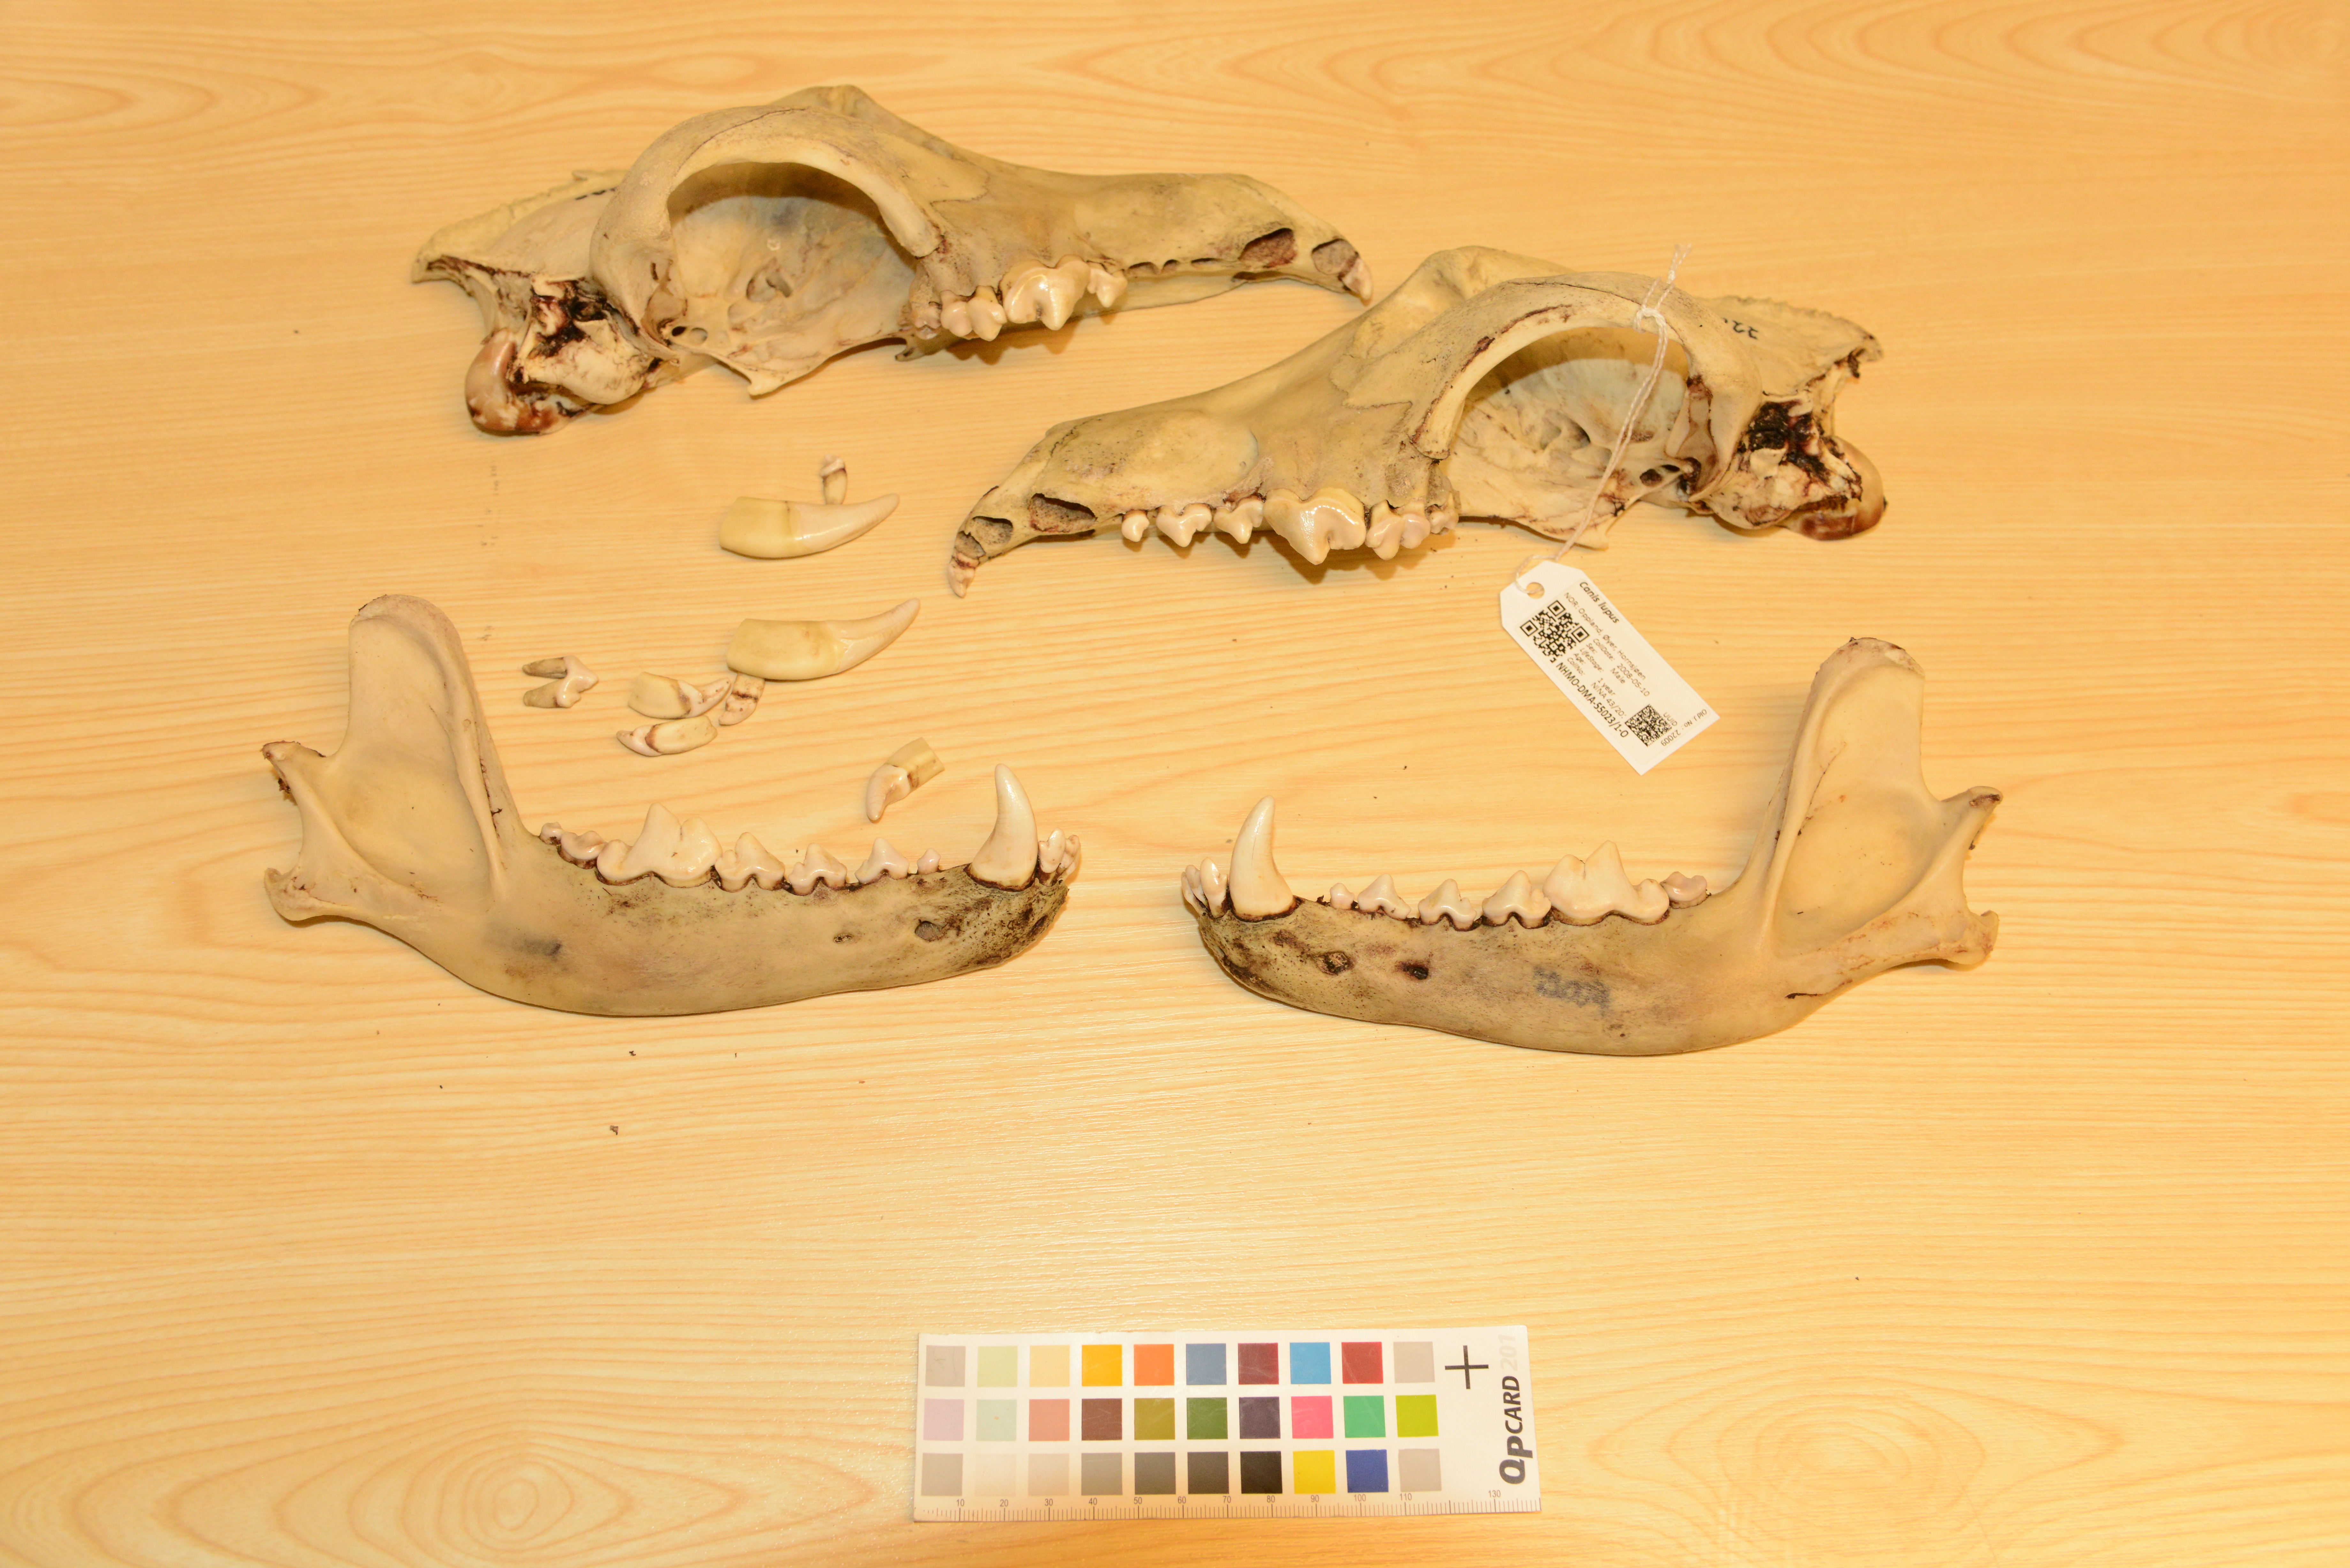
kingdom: Animalia
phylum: Chordata
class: Mammalia
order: Carnivora
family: Canidae
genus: Canis
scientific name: Canis lupus
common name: Gray wolf
